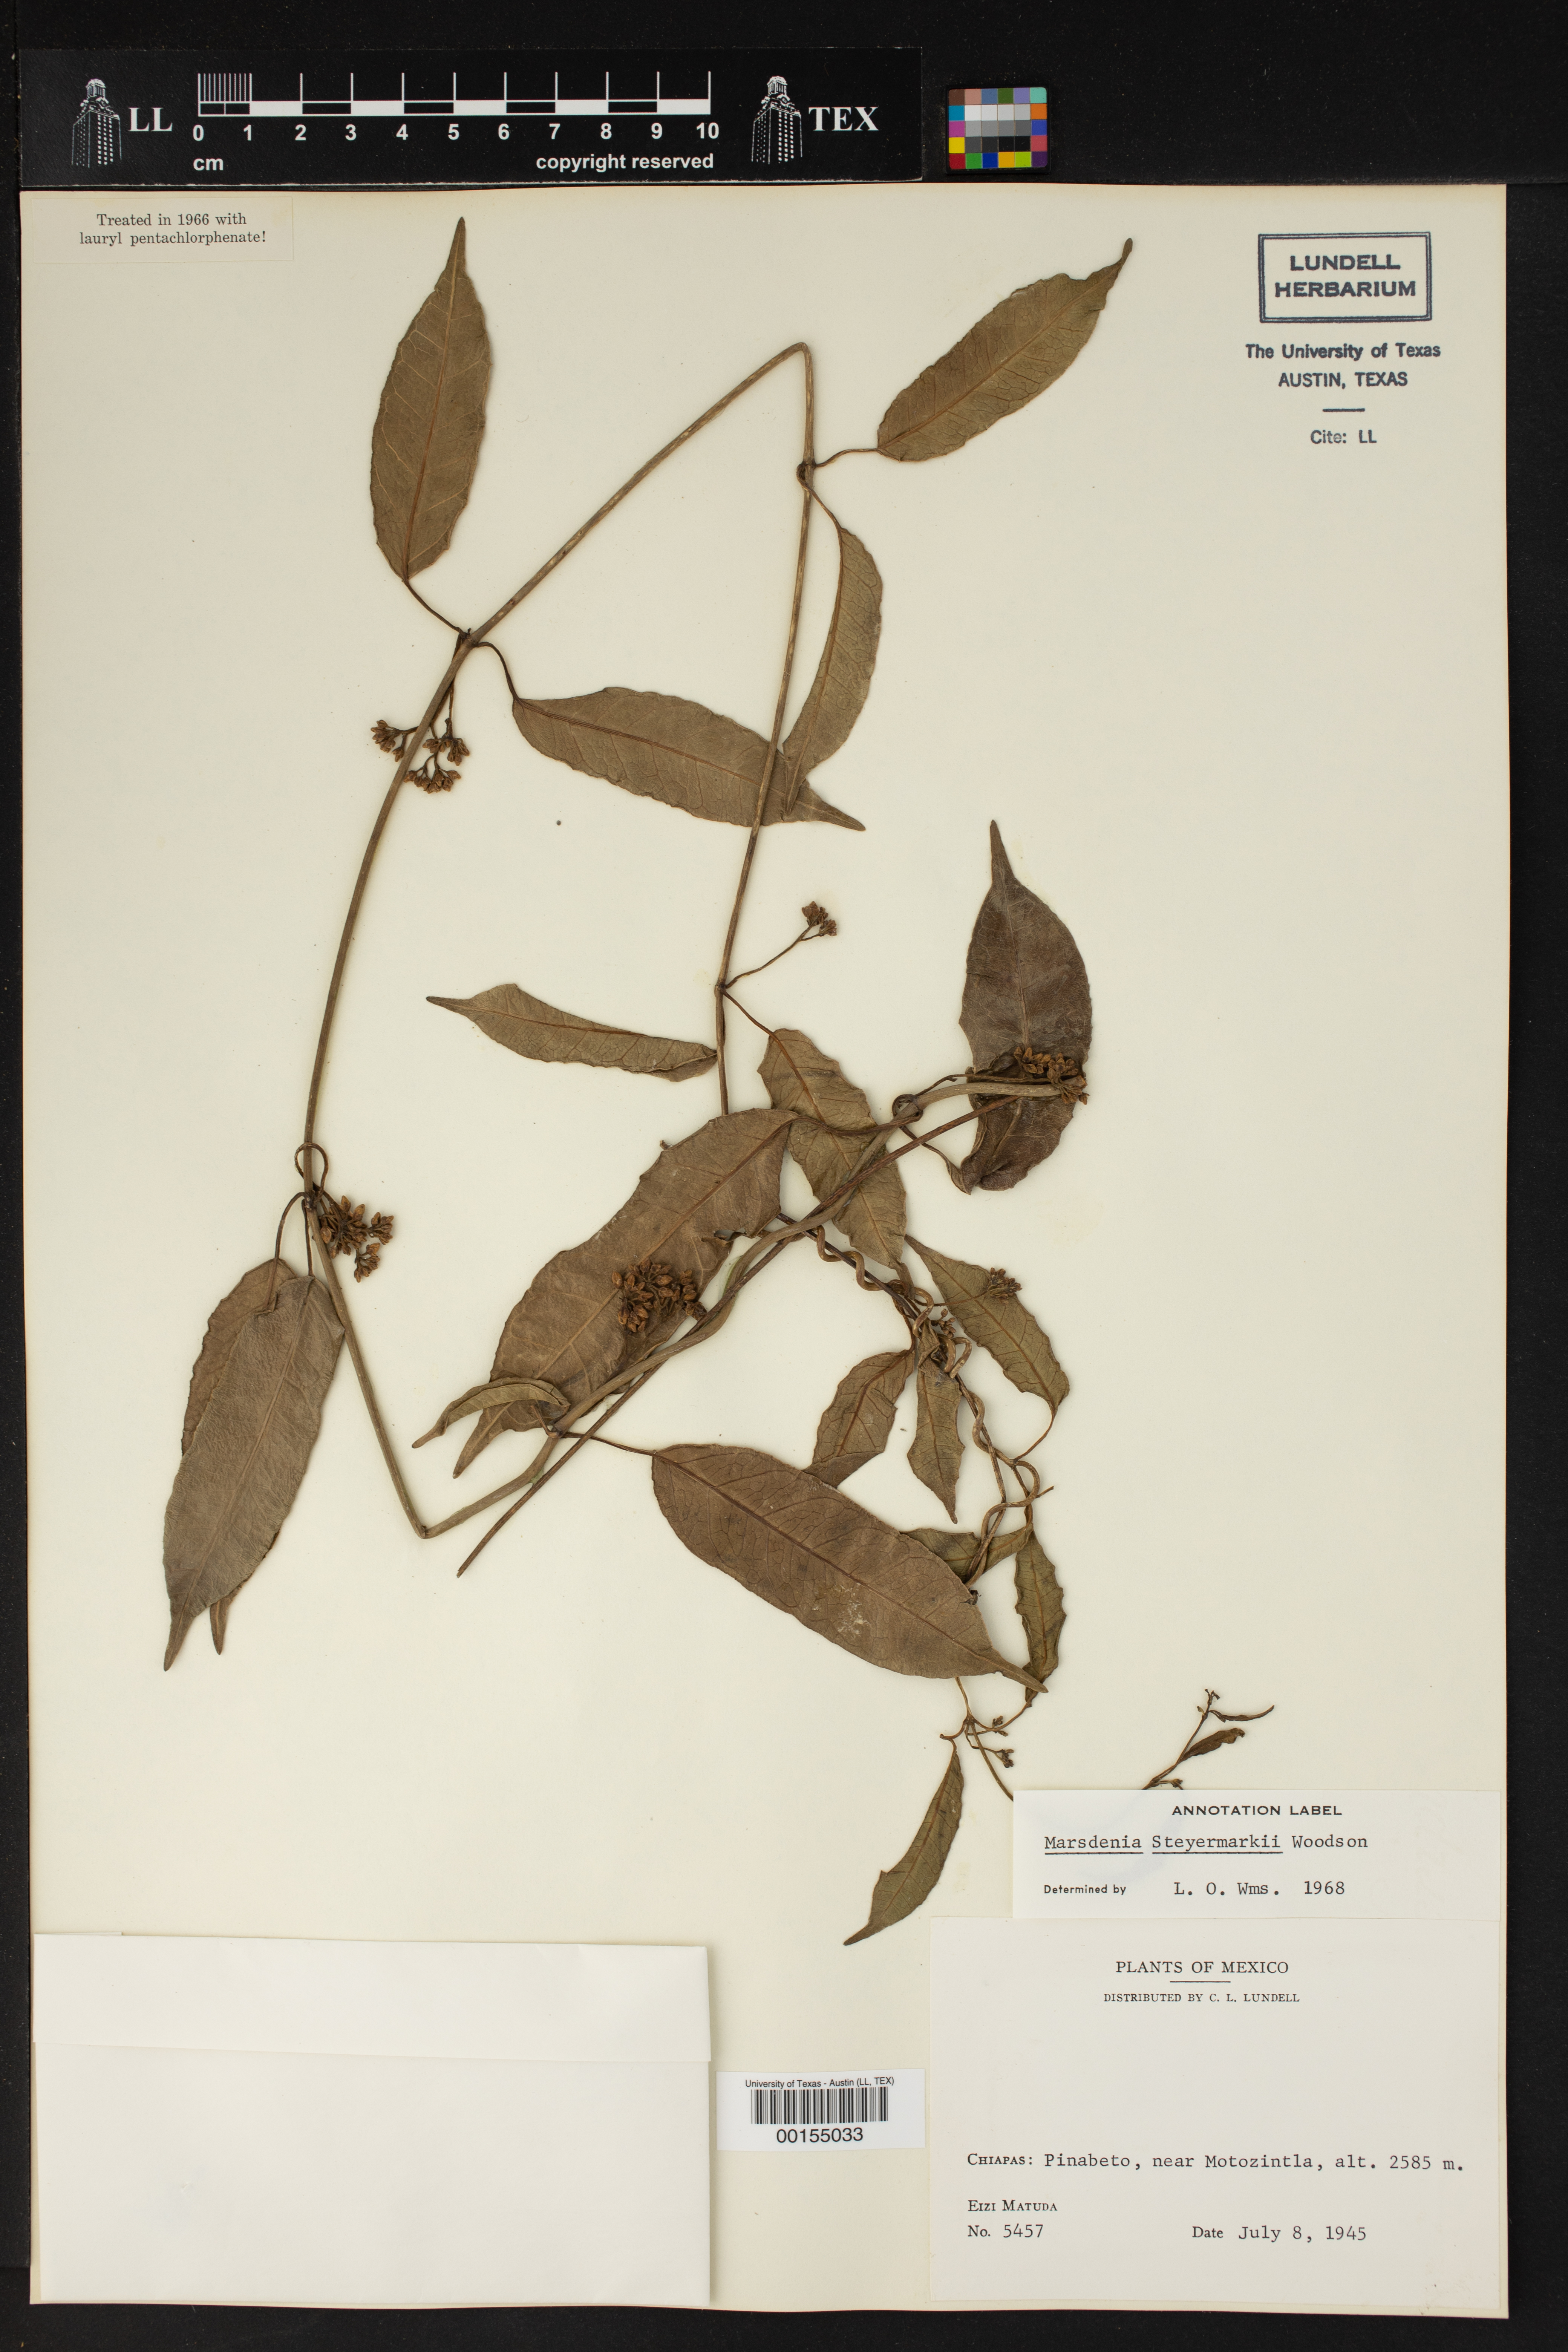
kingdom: Plantae
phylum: Tracheophyta
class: Magnoliopsida
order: Gentianales
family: Apocynaceae
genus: Ruehssia
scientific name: Ruehssia steyermarkii
